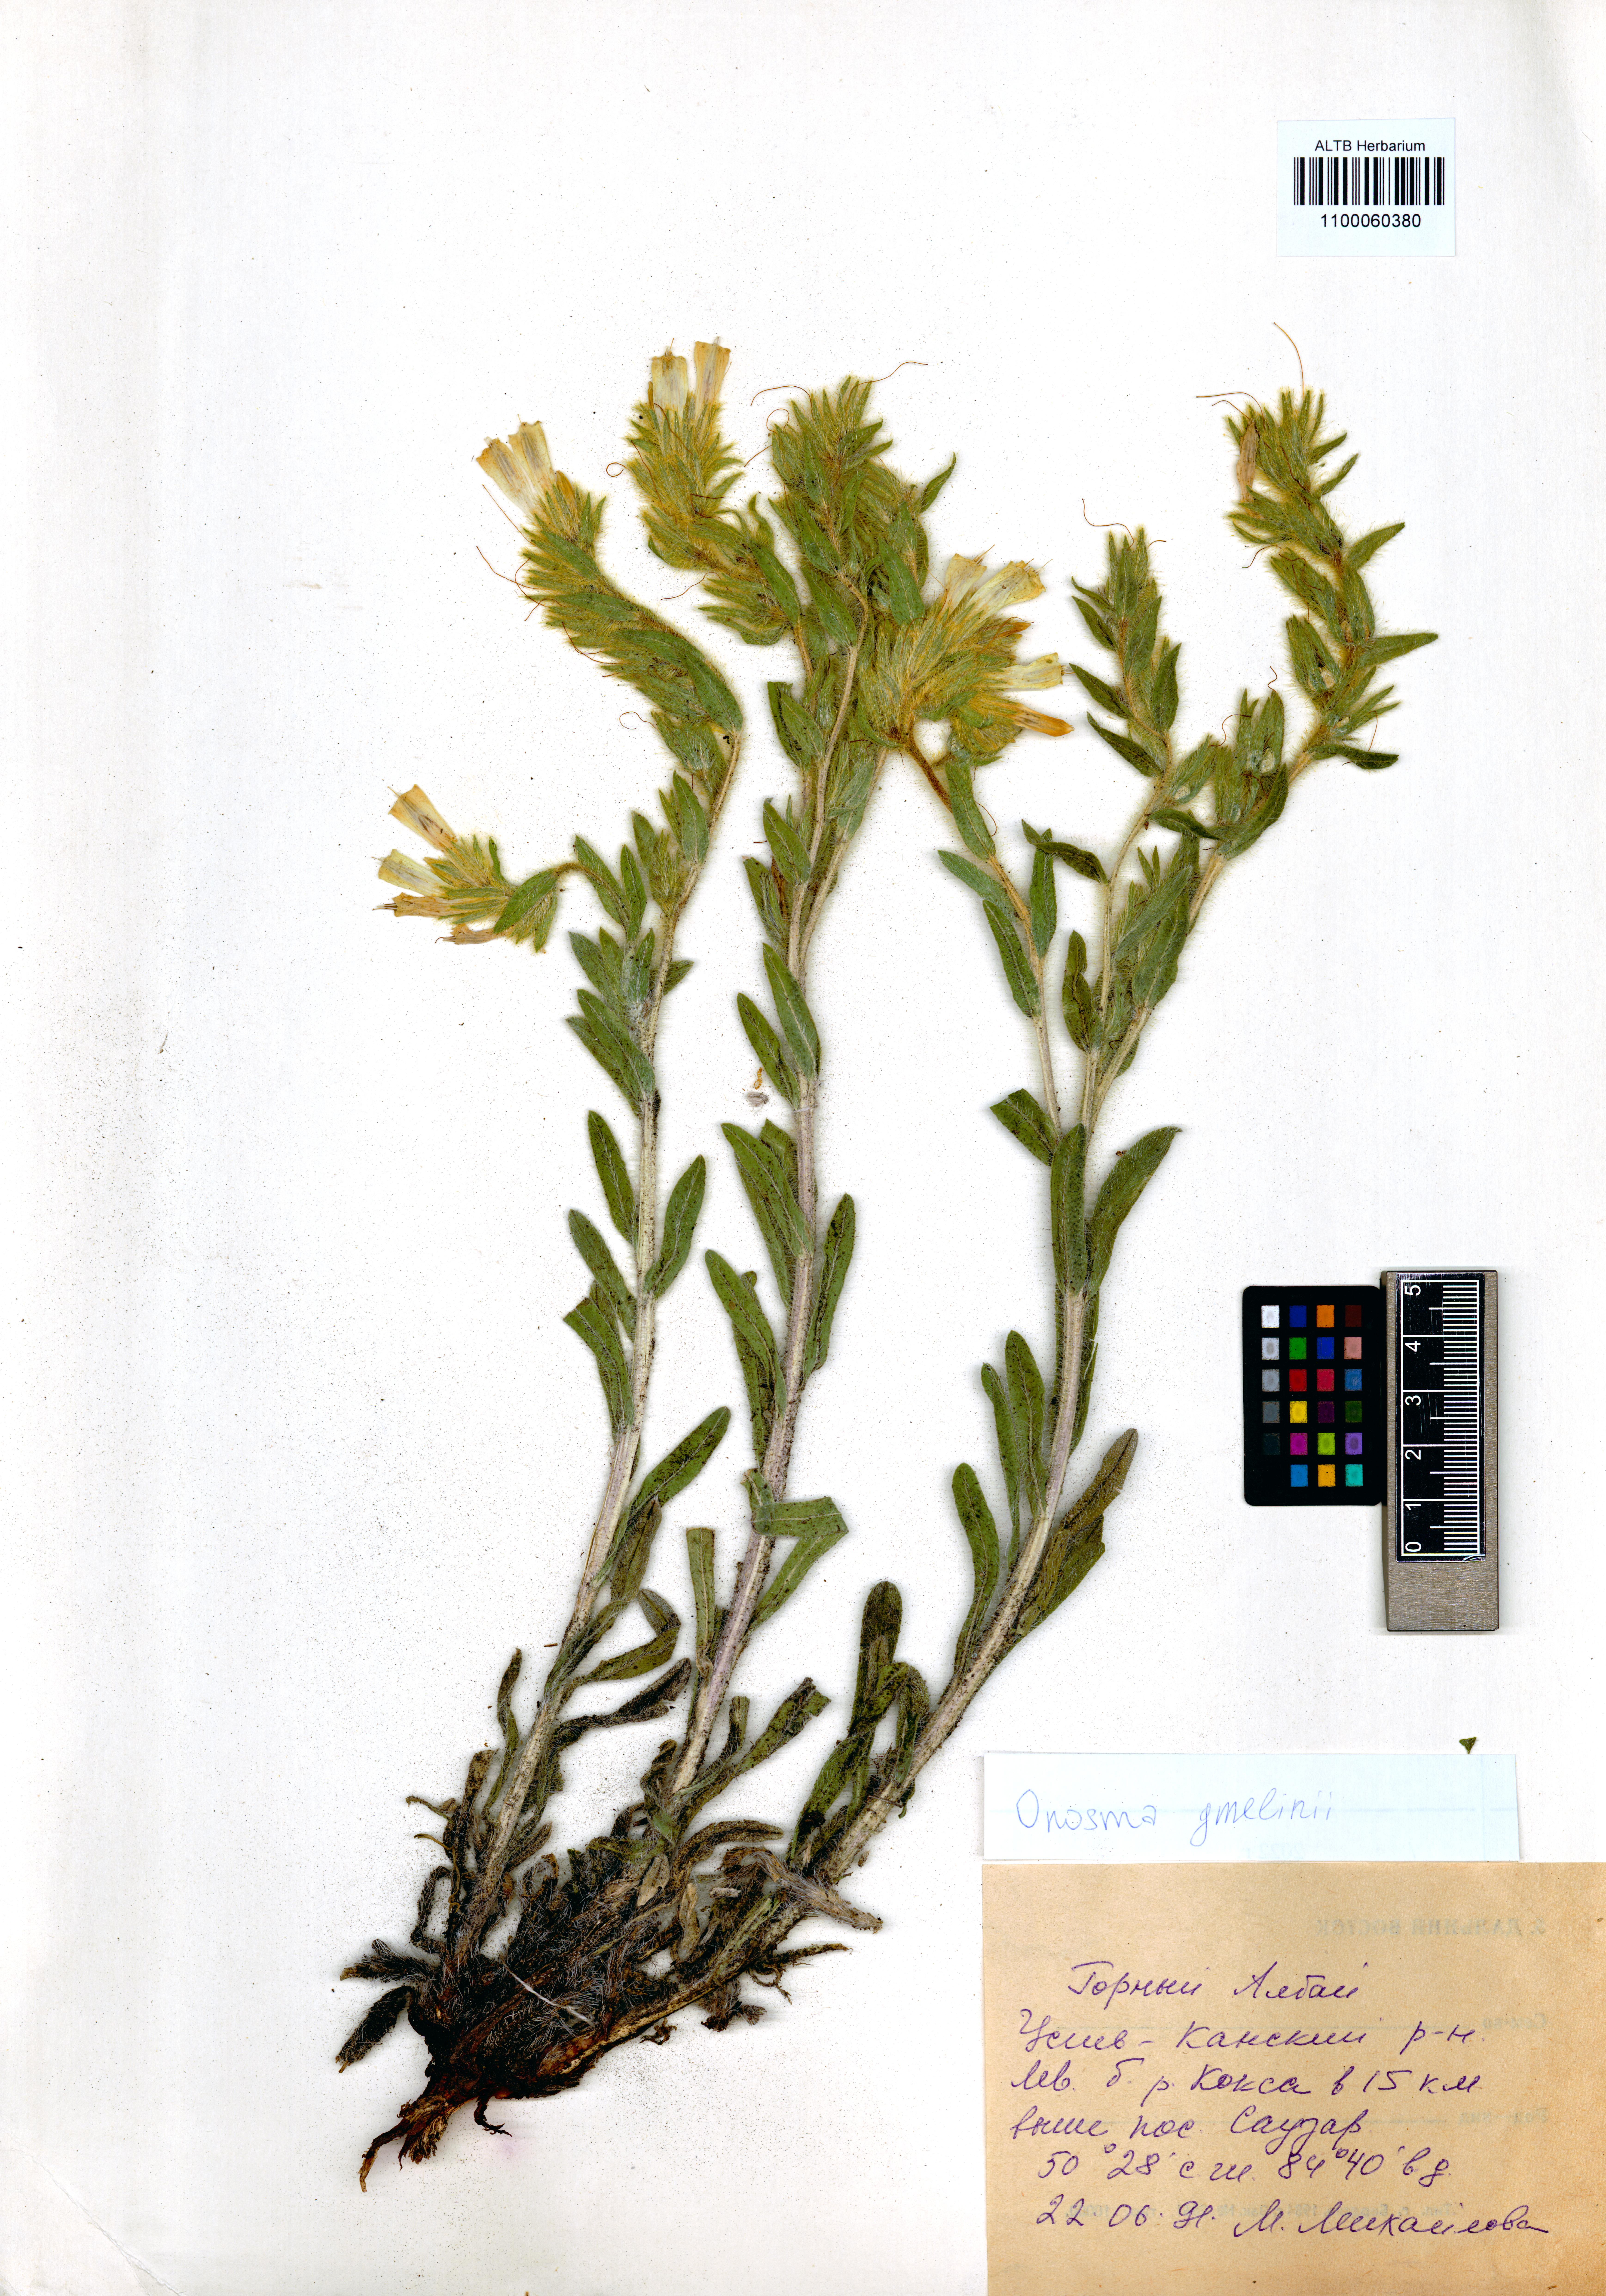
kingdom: Plantae
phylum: Tracheophyta
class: Magnoliopsida
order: Boraginales
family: Boraginaceae
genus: Onosma
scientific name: Onosma gmelinii
